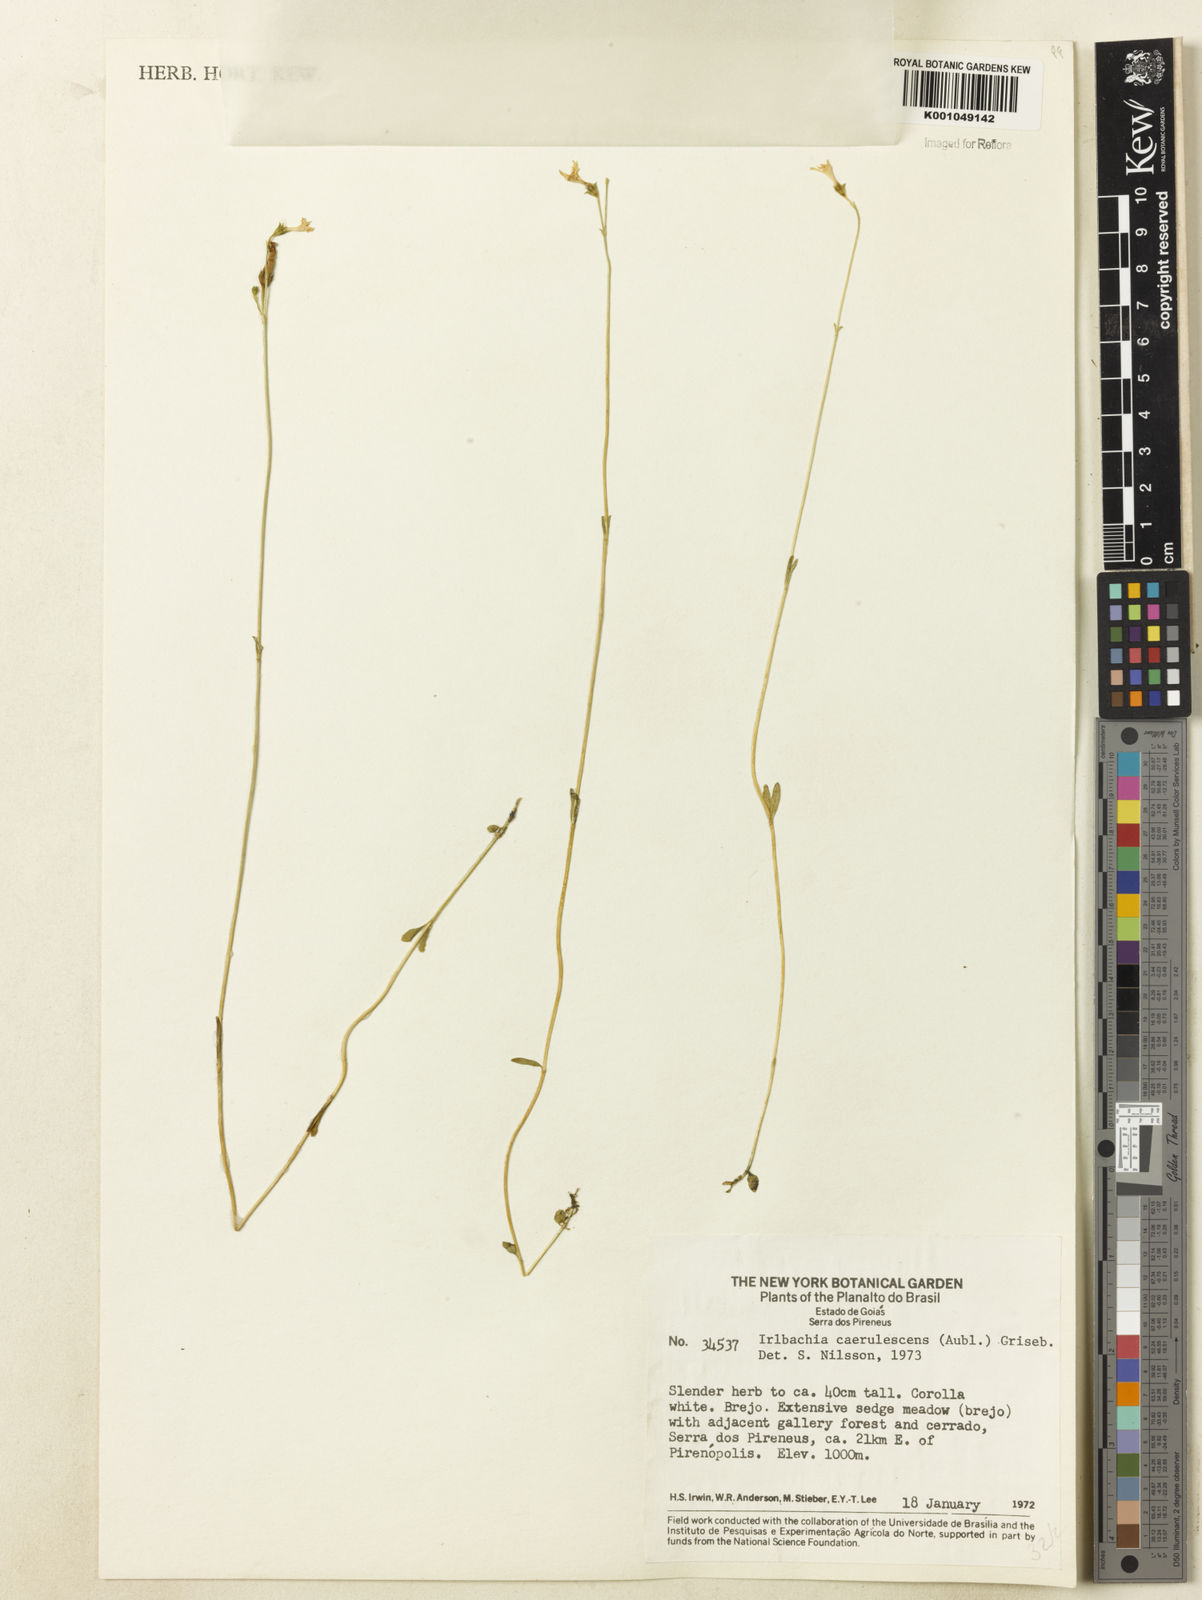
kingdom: Plantae
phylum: Tracheophyta
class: Magnoliopsida
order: Gentianales
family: Gentianaceae
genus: Tetrapollinia
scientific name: Tetrapollinia caerulescens
